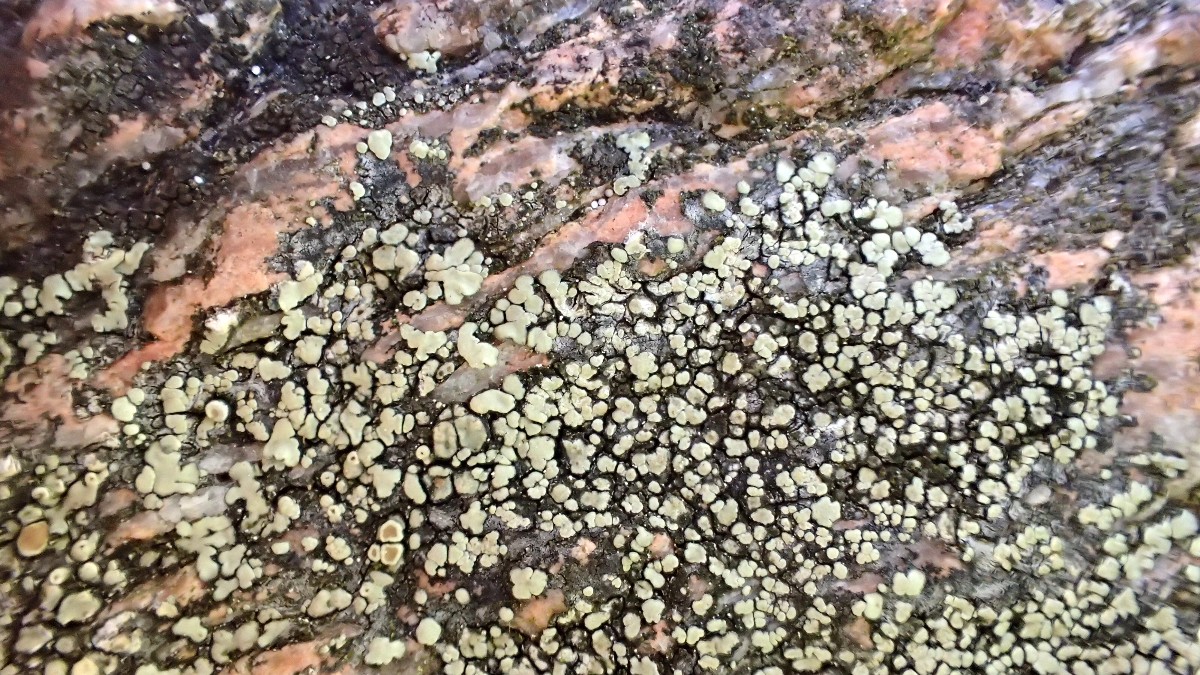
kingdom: Fungi
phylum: Ascomycota
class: Lecanoromycetes
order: Lecanorales
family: Lecanoraceae
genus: Lecanora
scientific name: Lecanora polytropa
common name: bleggrøn kantskivelav
